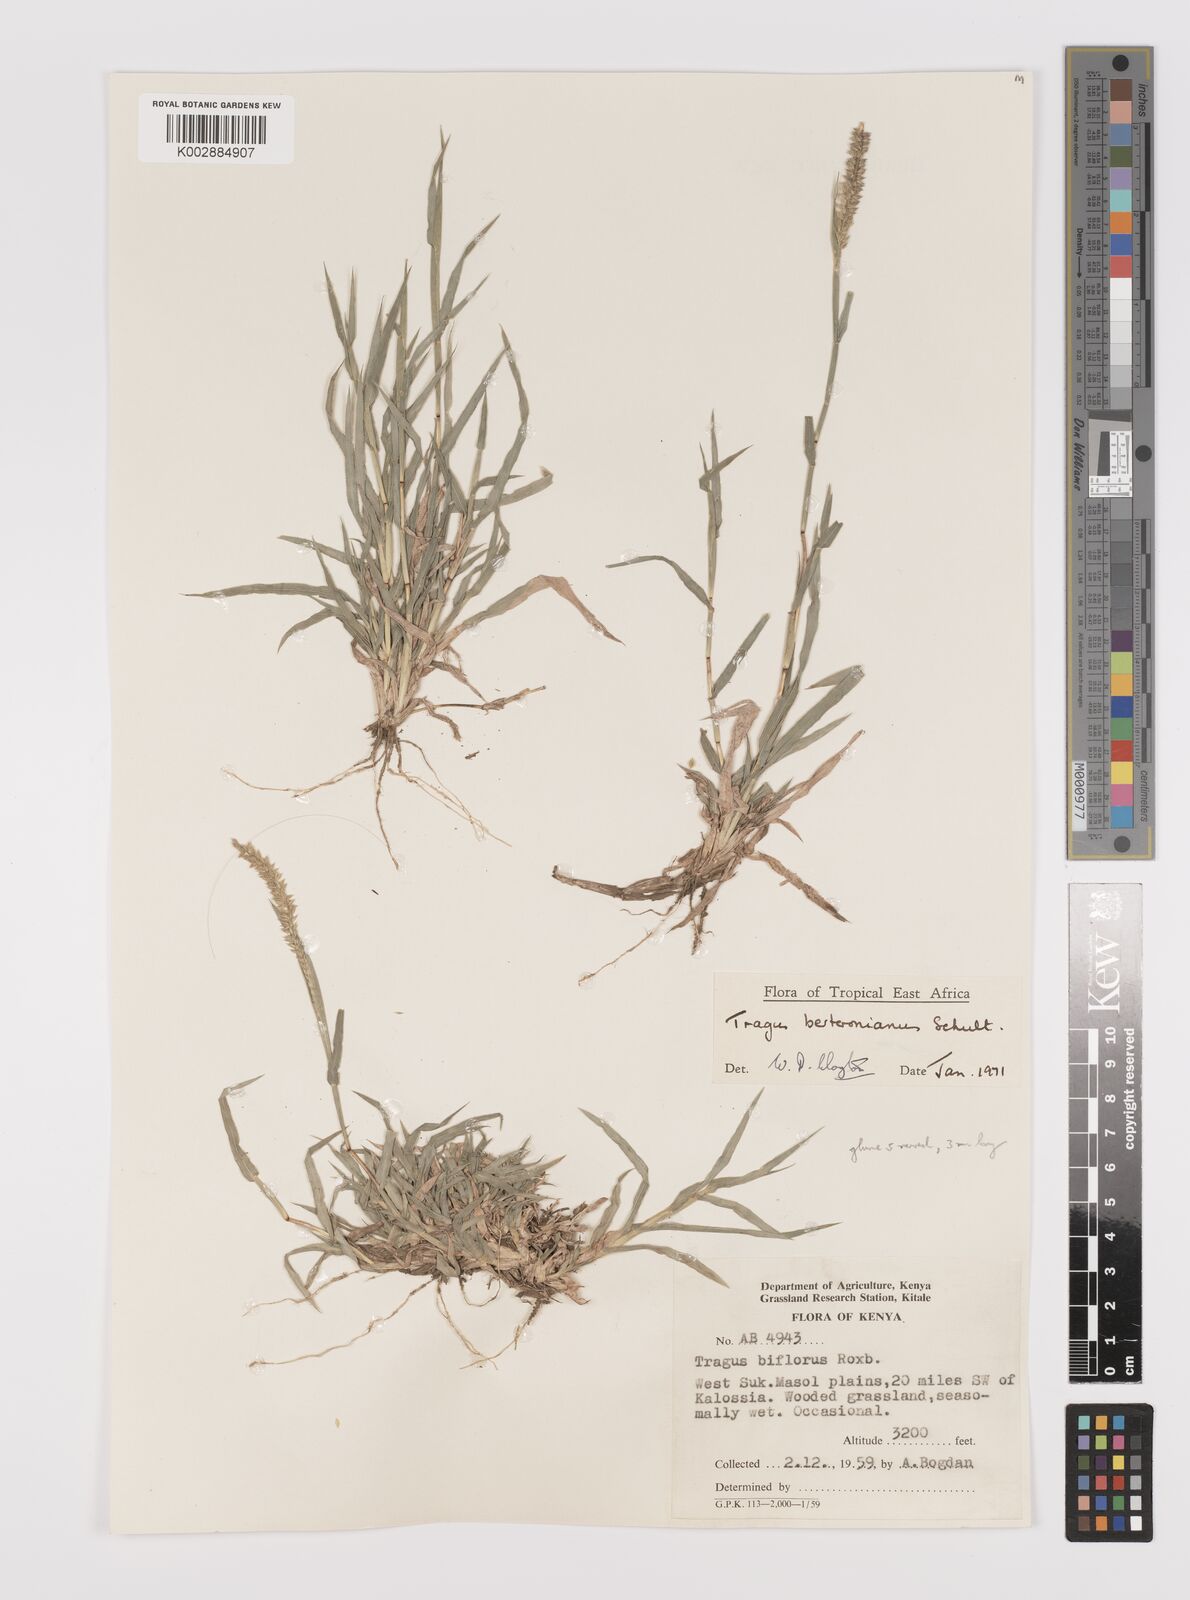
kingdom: Plantae
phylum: Tracheophyta
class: Liliopsida
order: Poales
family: Poaceae
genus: Tragus
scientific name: Tragus berteronianus
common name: African bur-grass
